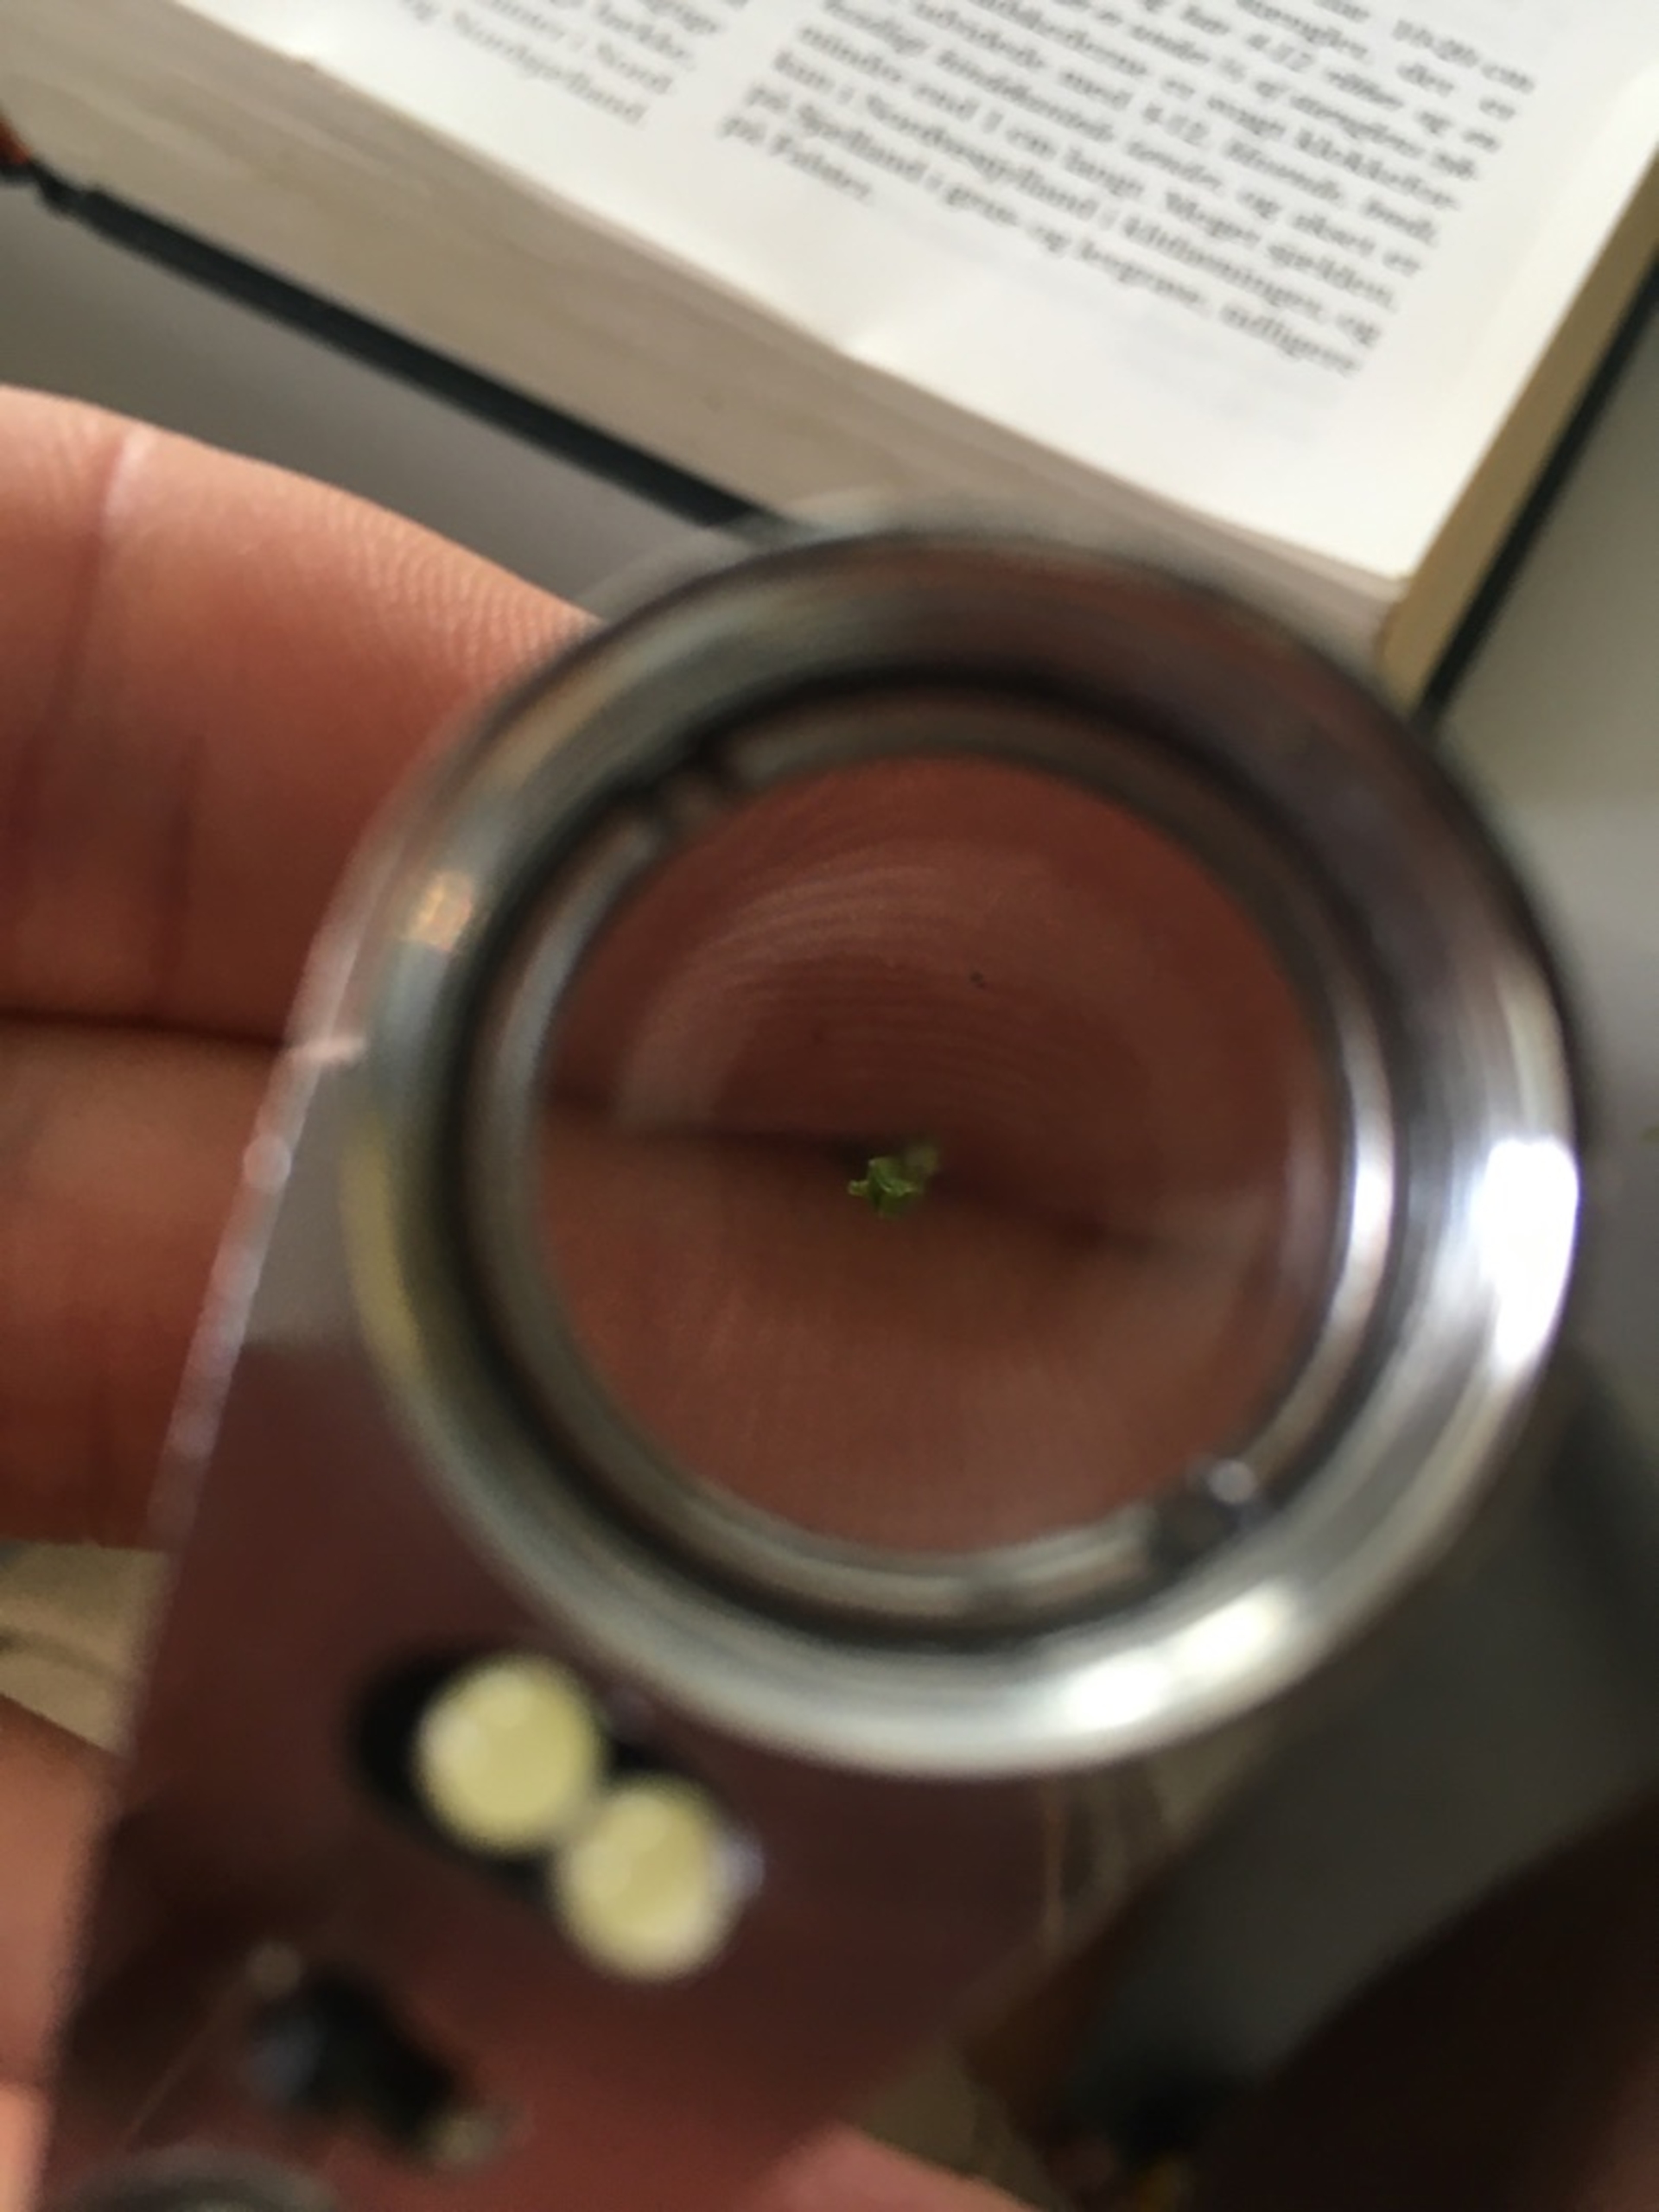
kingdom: Plantae
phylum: Tracheophyta
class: Polypodiopsida
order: Equisetales
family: Equisetaceae
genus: Equisetum
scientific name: Equisetum arvense
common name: Ager-padderok
